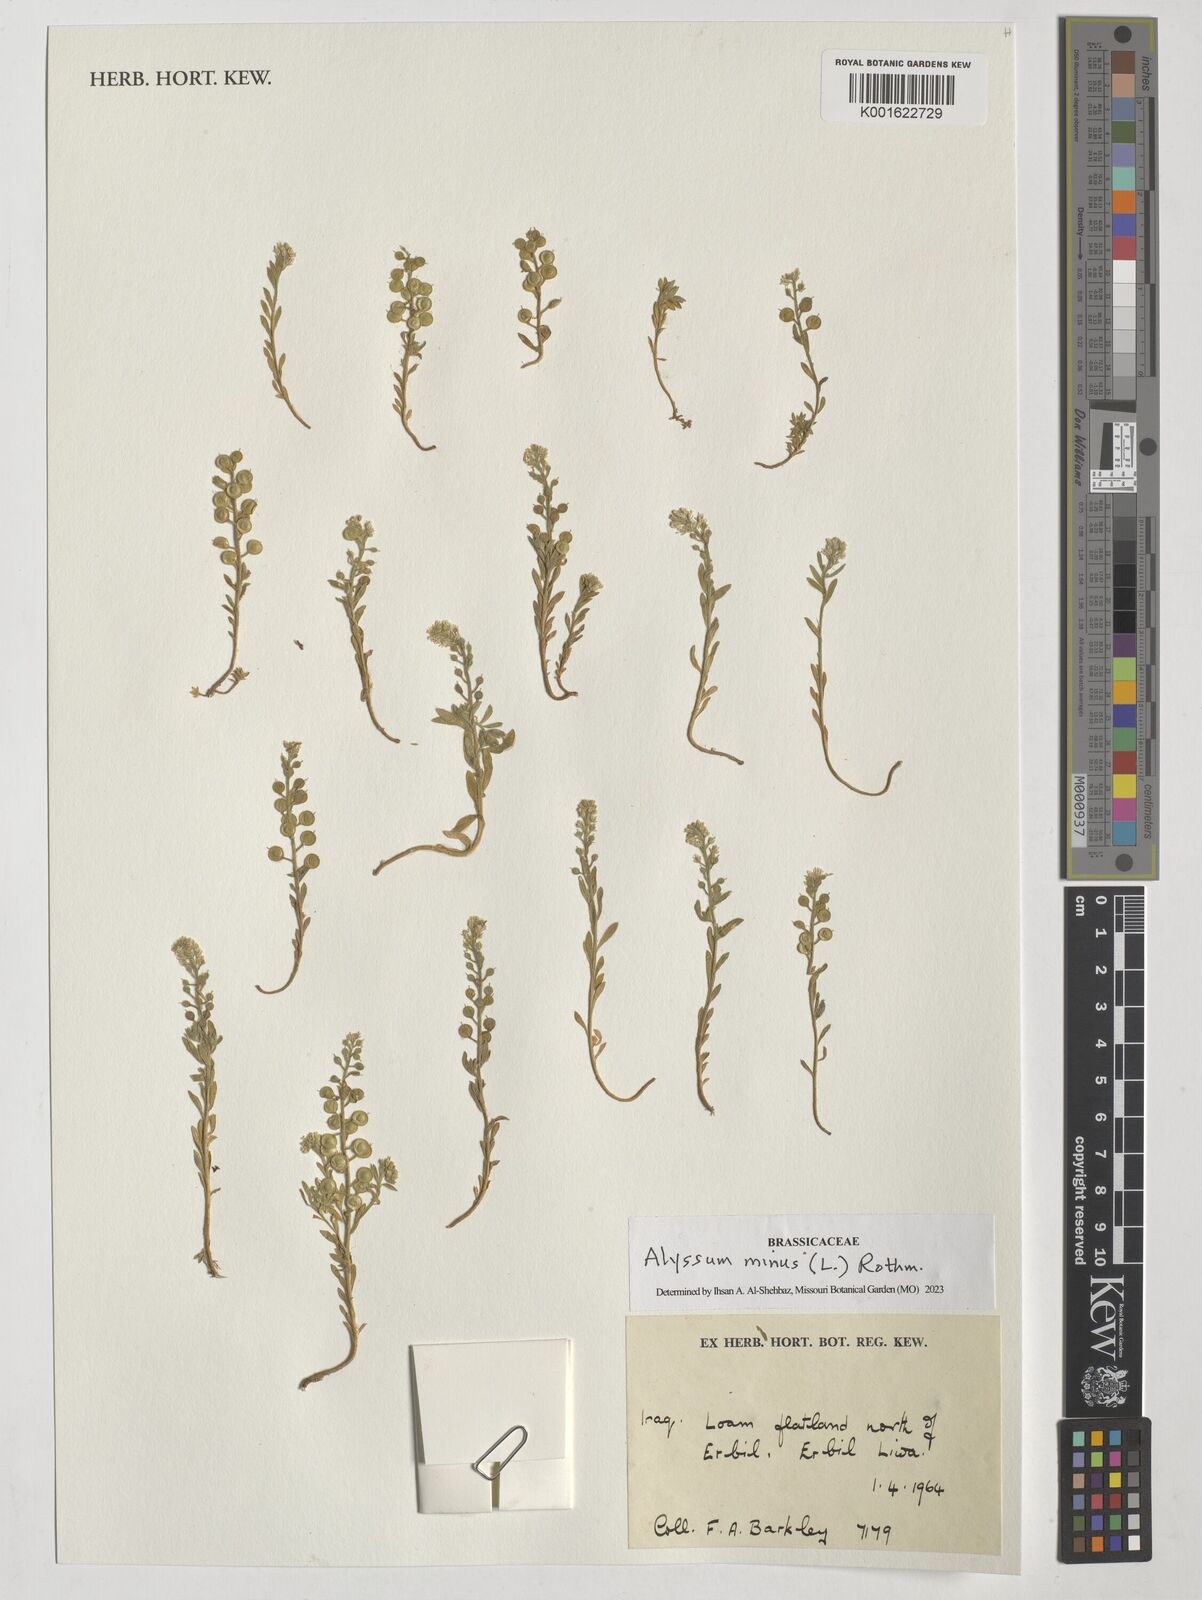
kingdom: Plantae
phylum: Tracheophyta
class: Magnoliopsida
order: Brassicales
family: Brassicaceae
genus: Alyssum
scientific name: Alyssum simplex
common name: Alyssum
